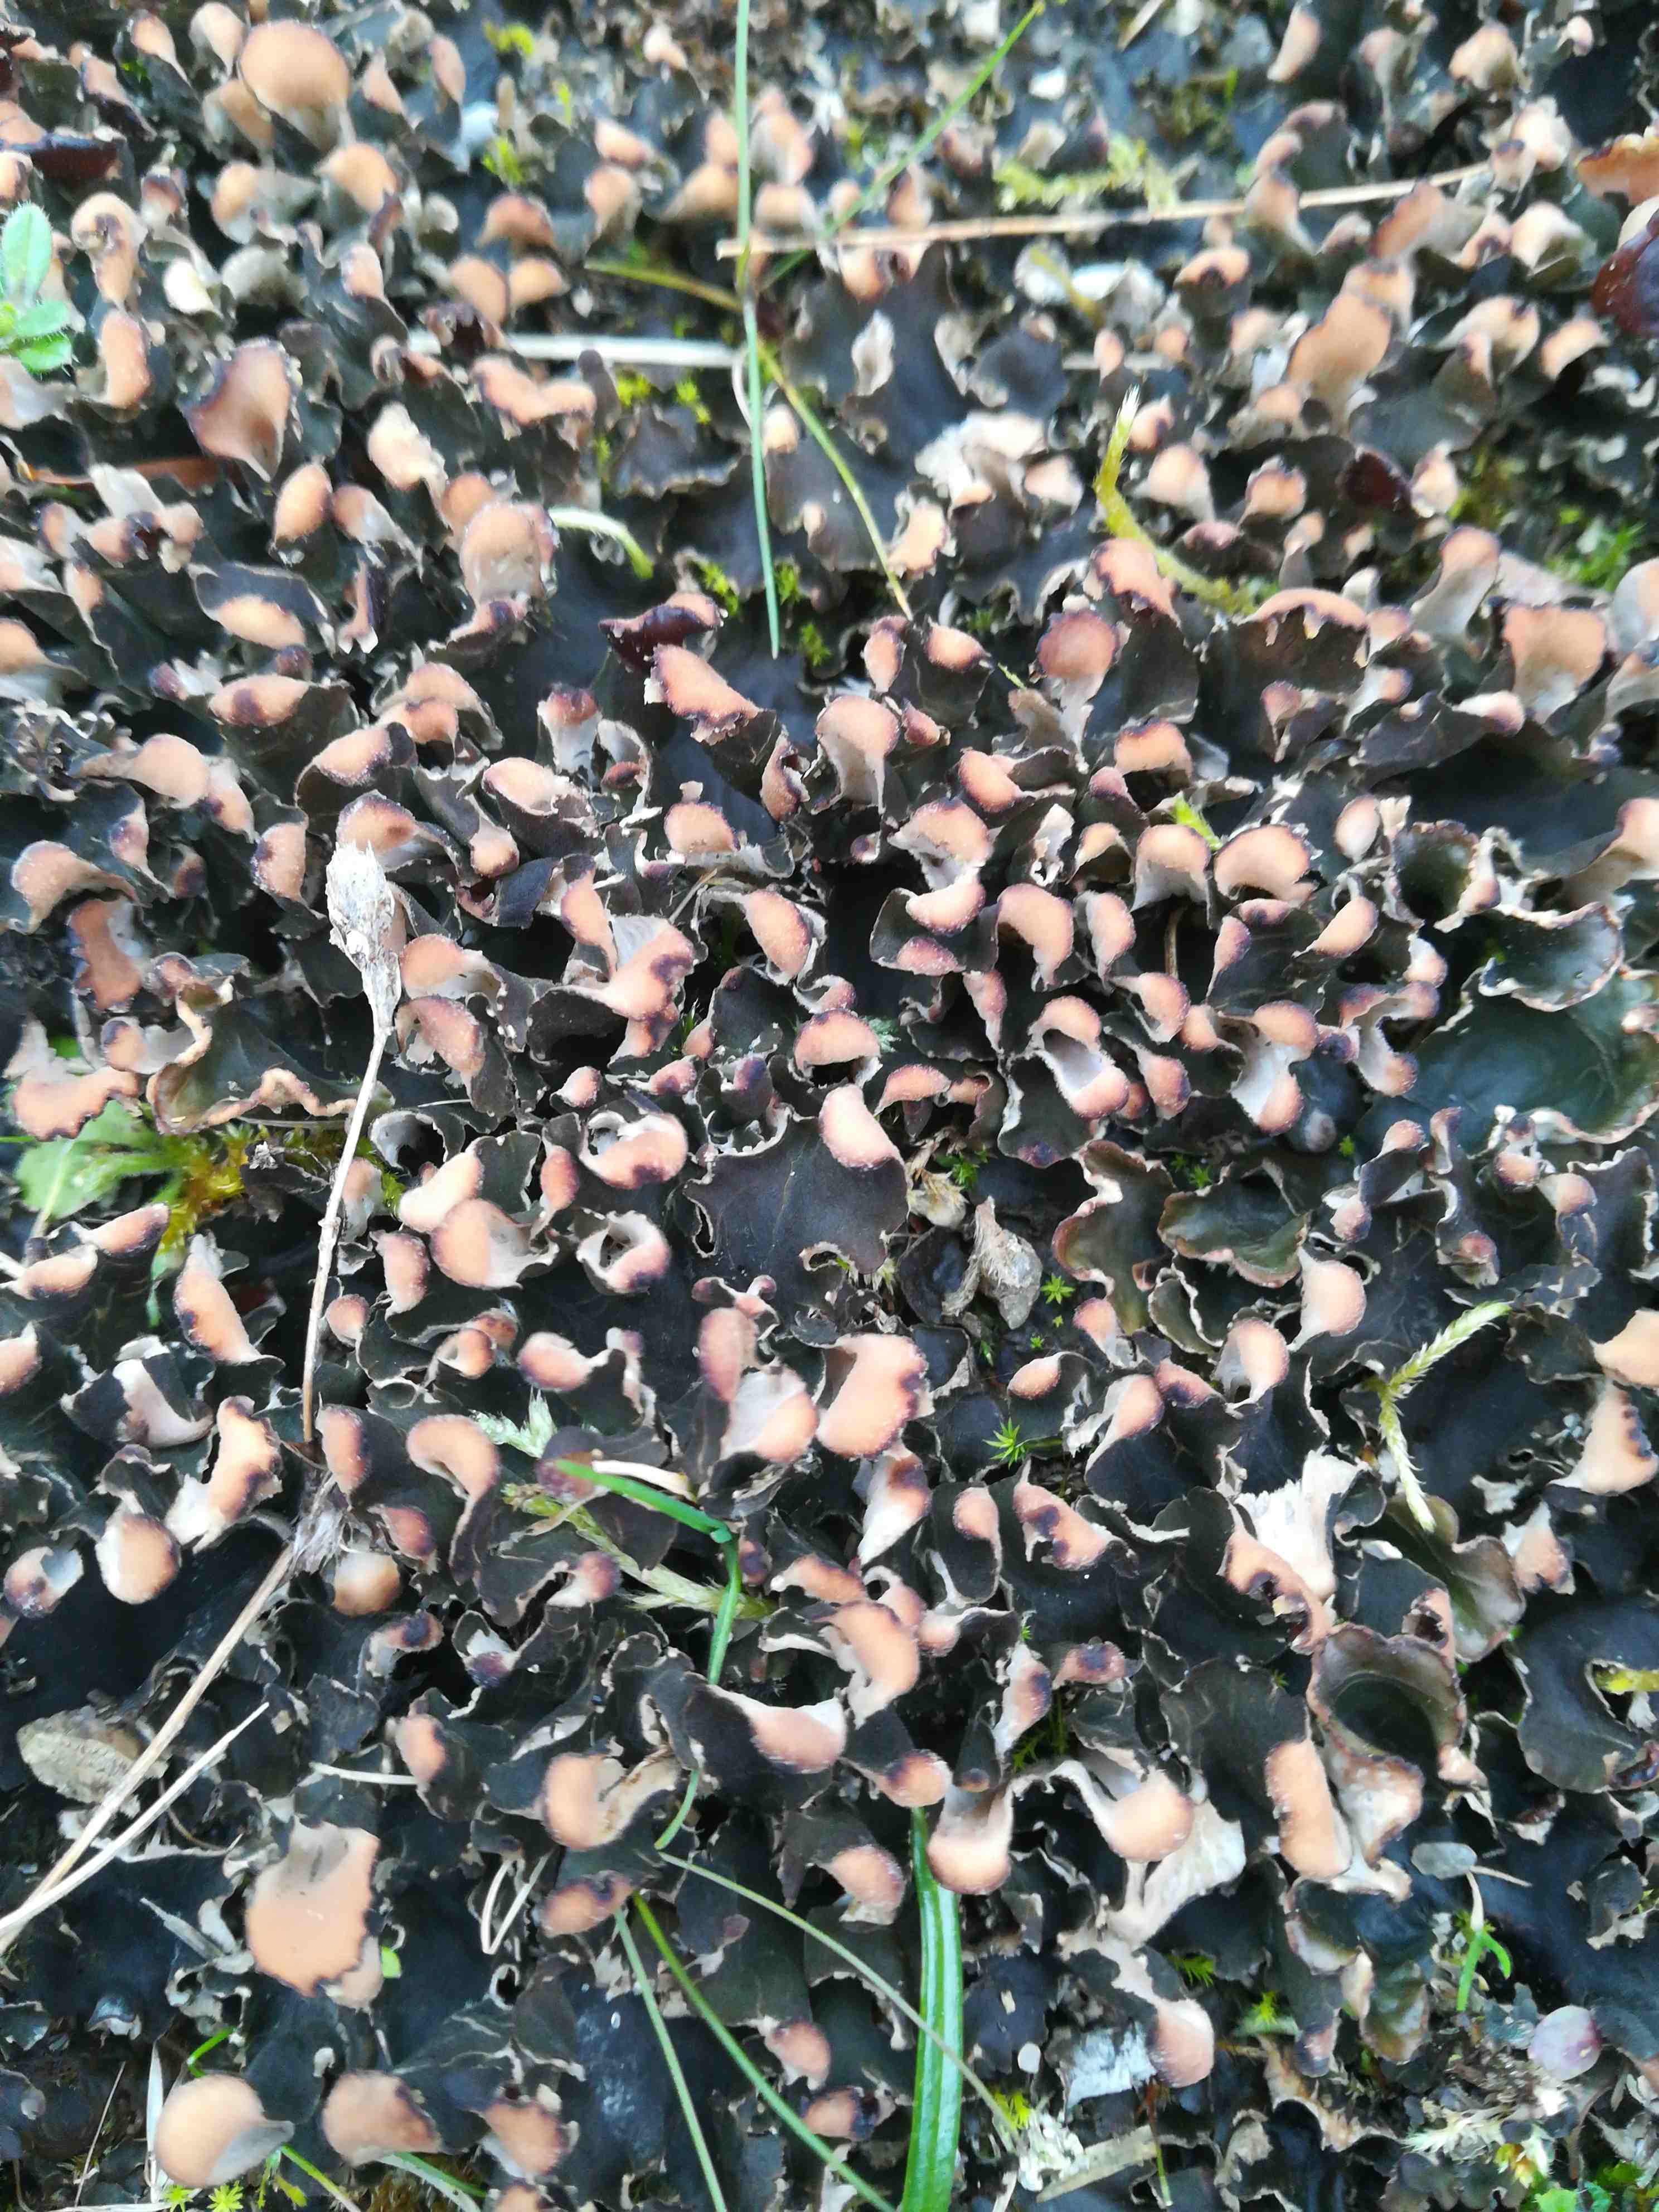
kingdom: Fungi
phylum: Ascomycota
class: Lecanoromycetes
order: Peltigerales
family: Peltigeraceae
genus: Peltigera
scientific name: Peltigera didactyla
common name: liden skjoldlav
